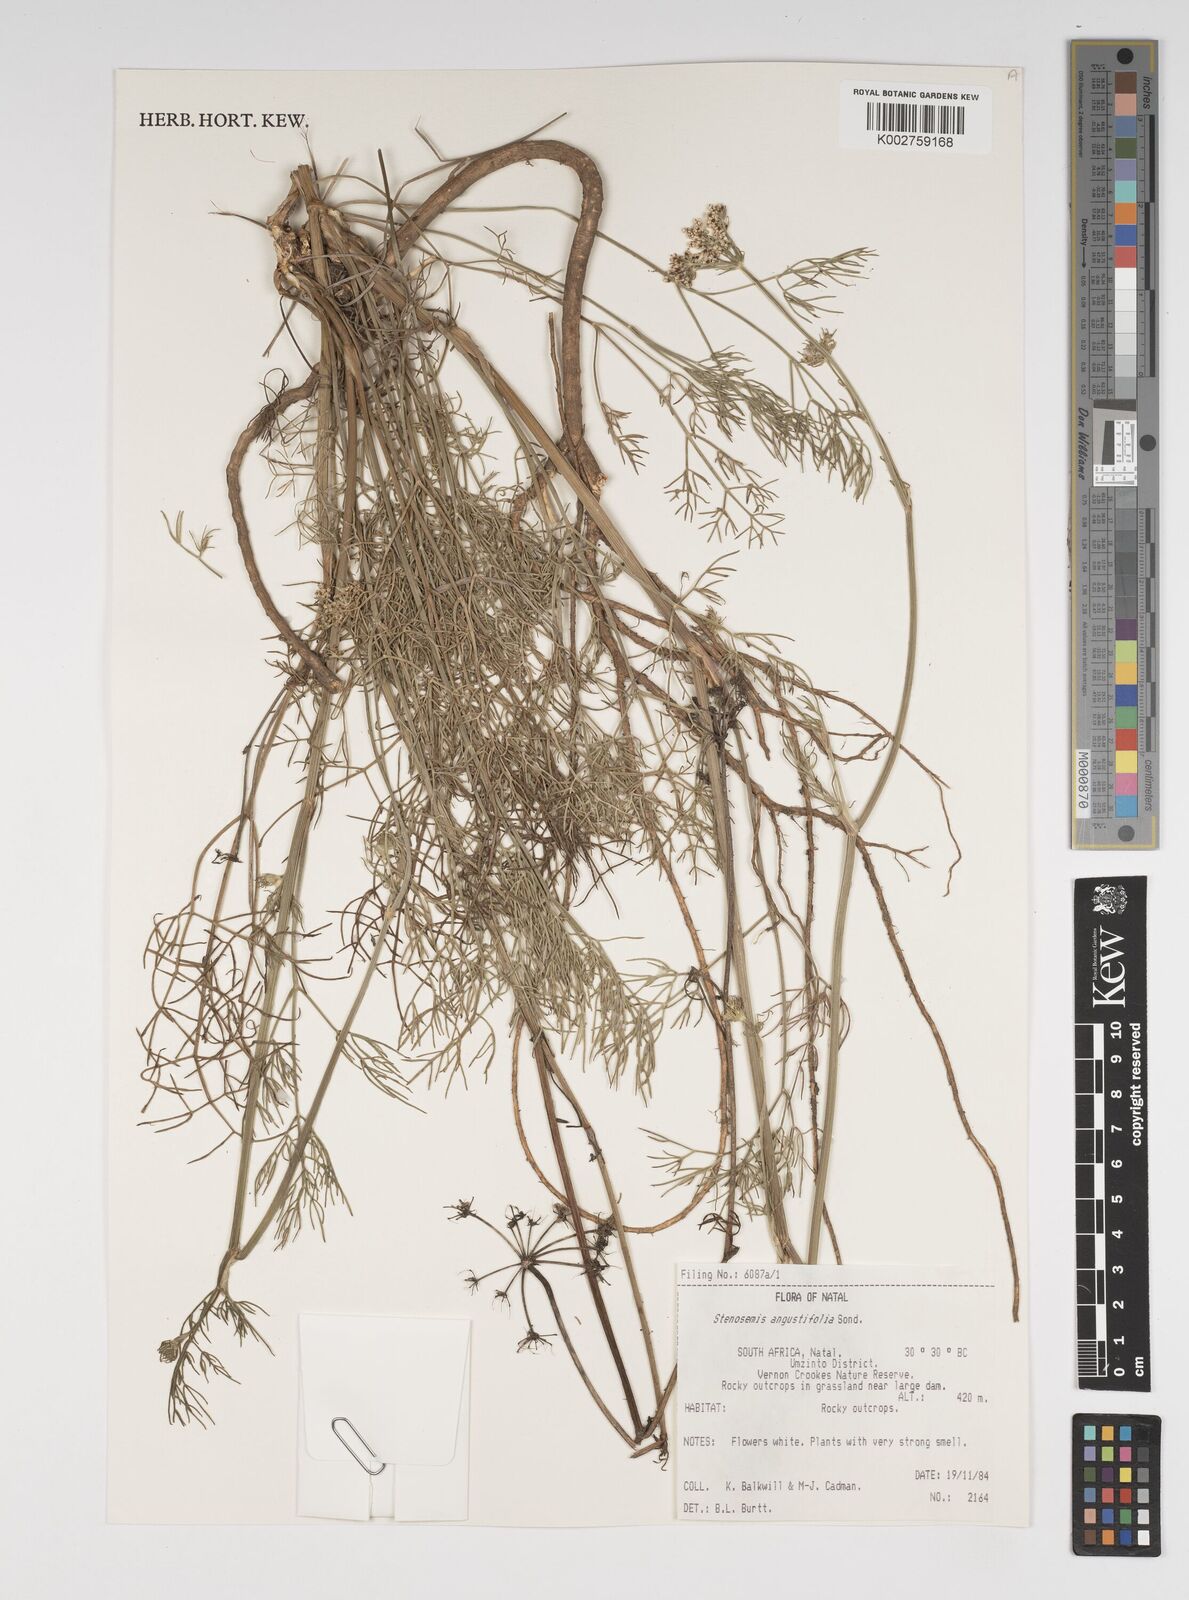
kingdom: Plantae
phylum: Tracheophyta
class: Magnoliopsida
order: Apiales
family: Apiaceae
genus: Stenosemis
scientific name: Stenosemis angustifolia
